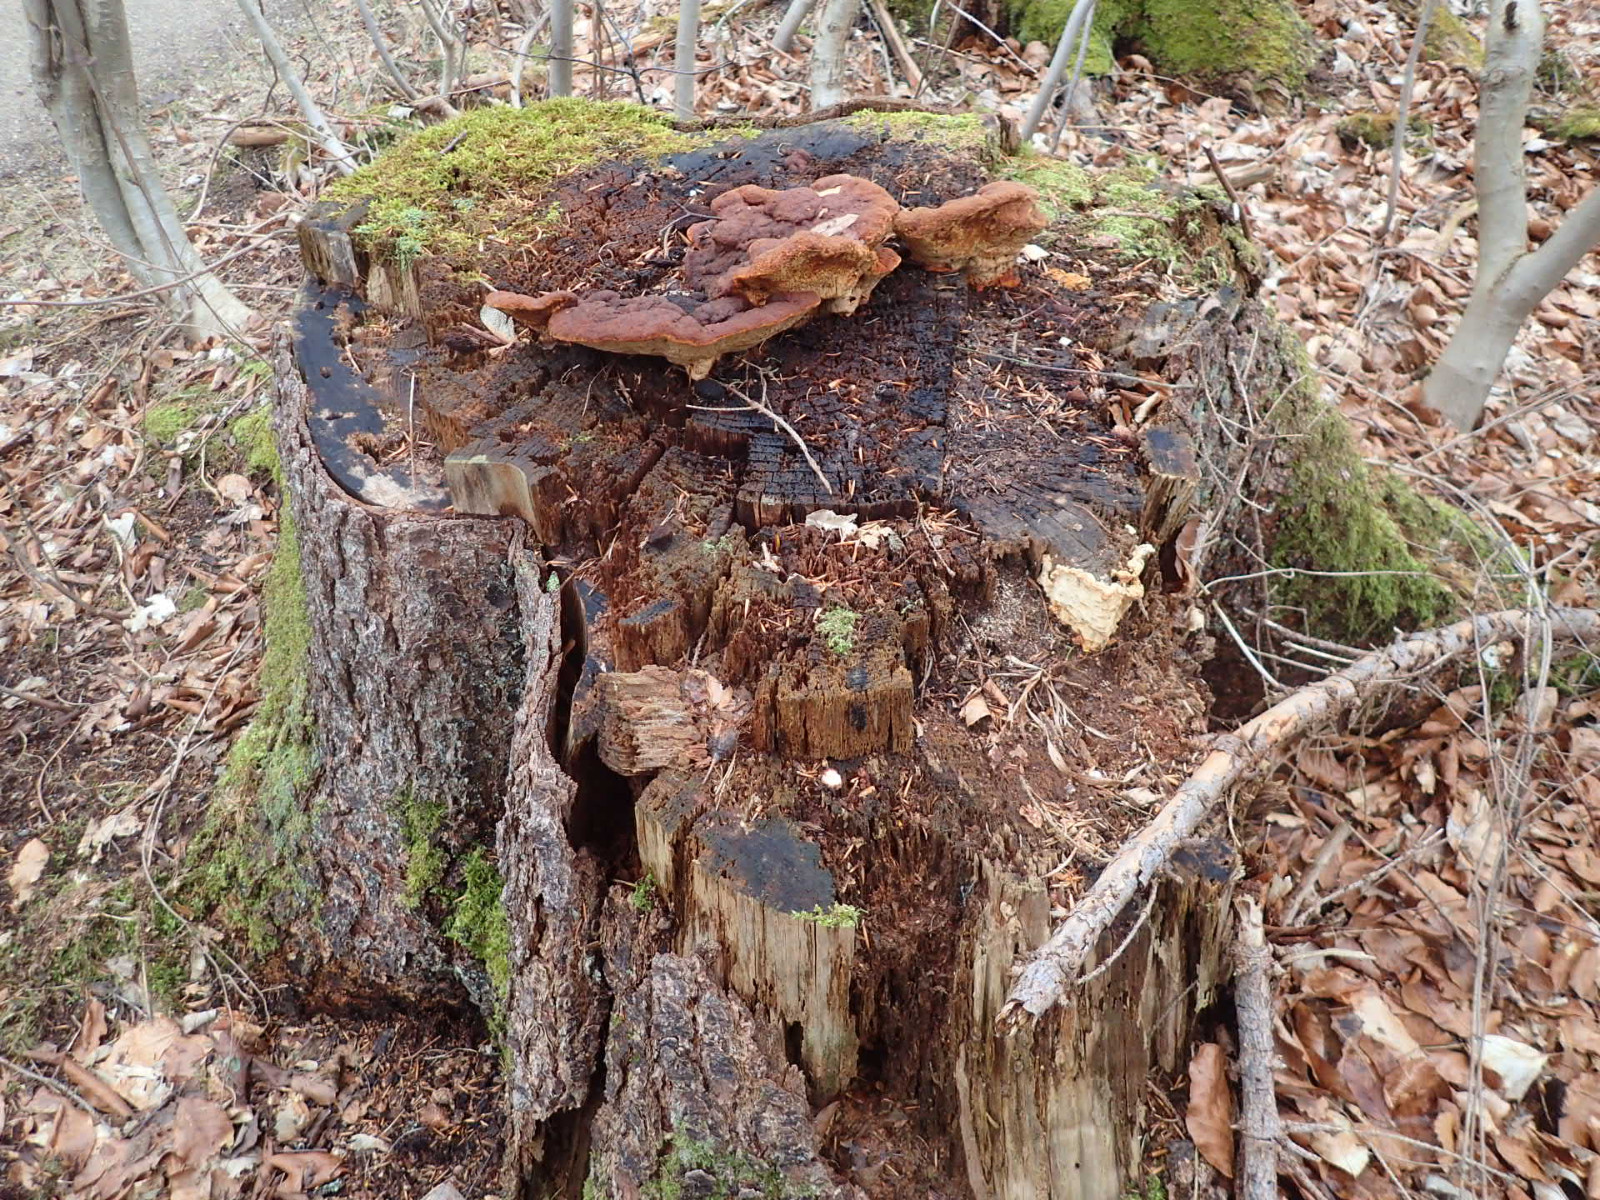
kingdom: Fungi
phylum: Basidiomycota
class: Agaricomycetes
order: Polyporales
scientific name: Polyporales
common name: poresvampordenen
